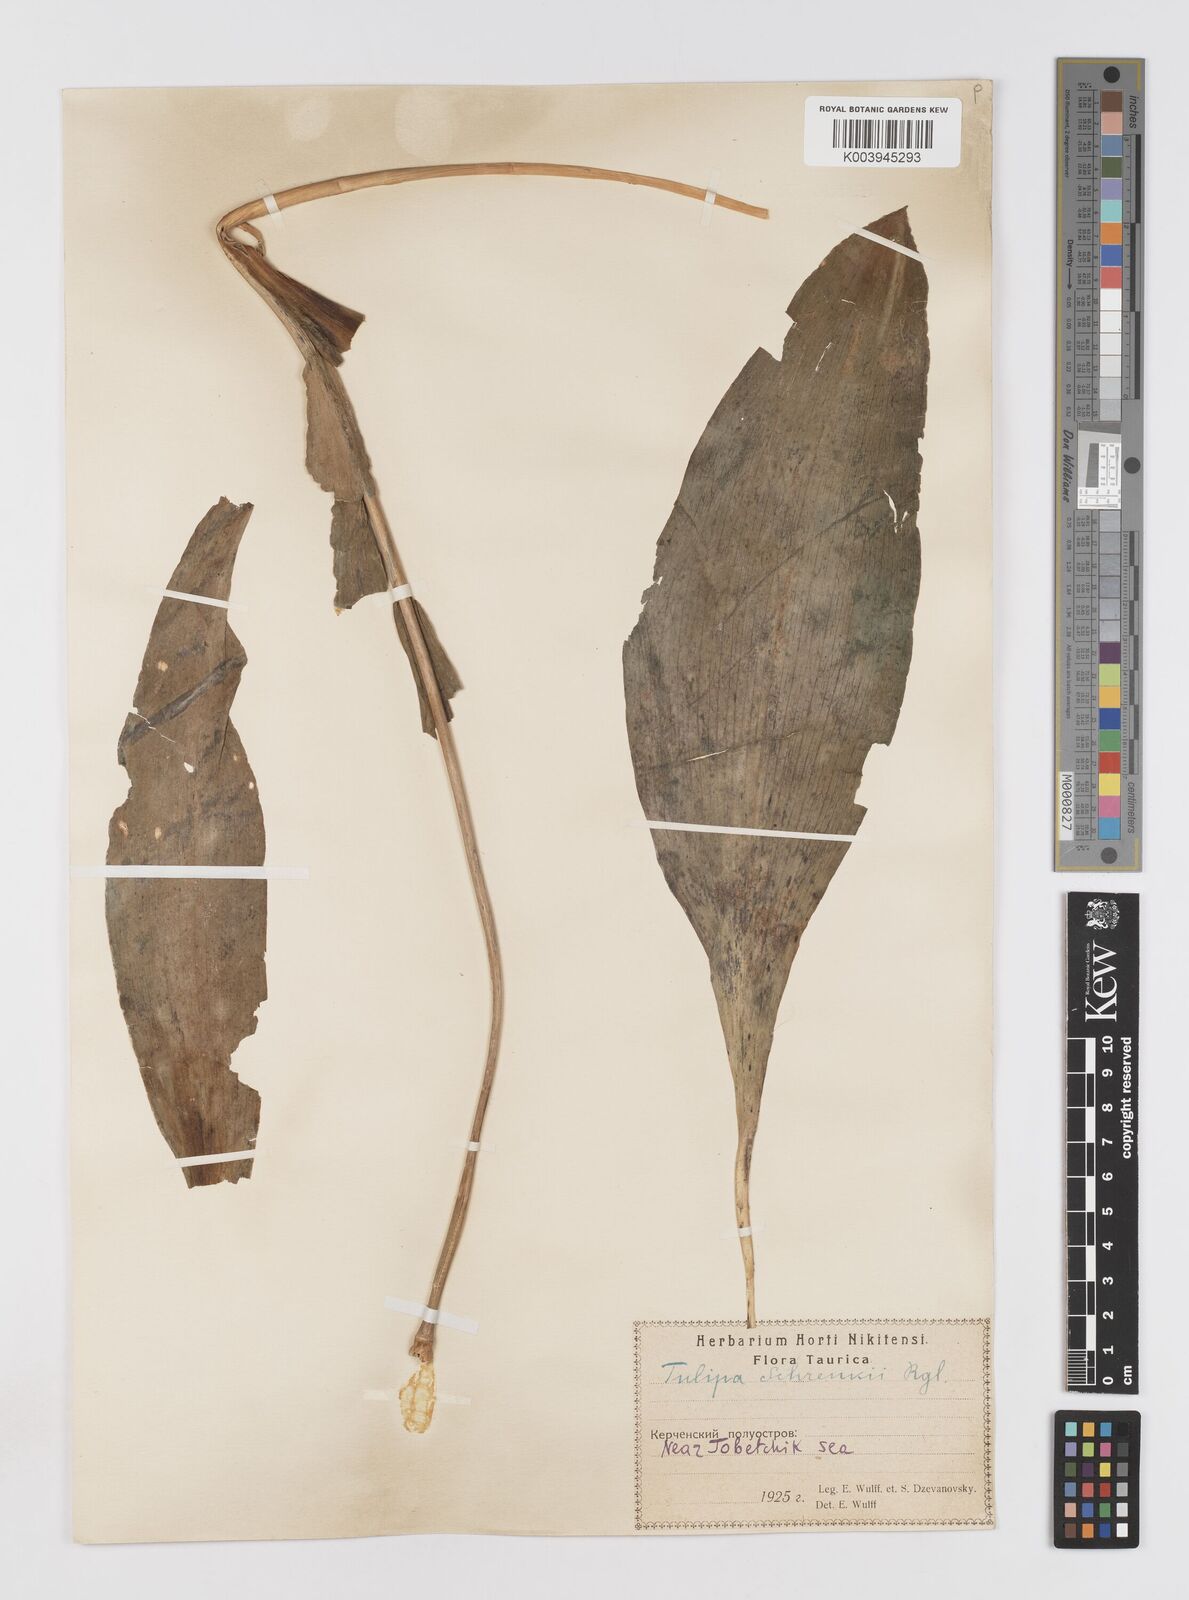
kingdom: Plantae
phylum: Tracheophyta
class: Liliopsida
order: Liliales
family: Liliaceae
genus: Tulipa
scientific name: Tulipa gesneriana
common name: Garden tulip
